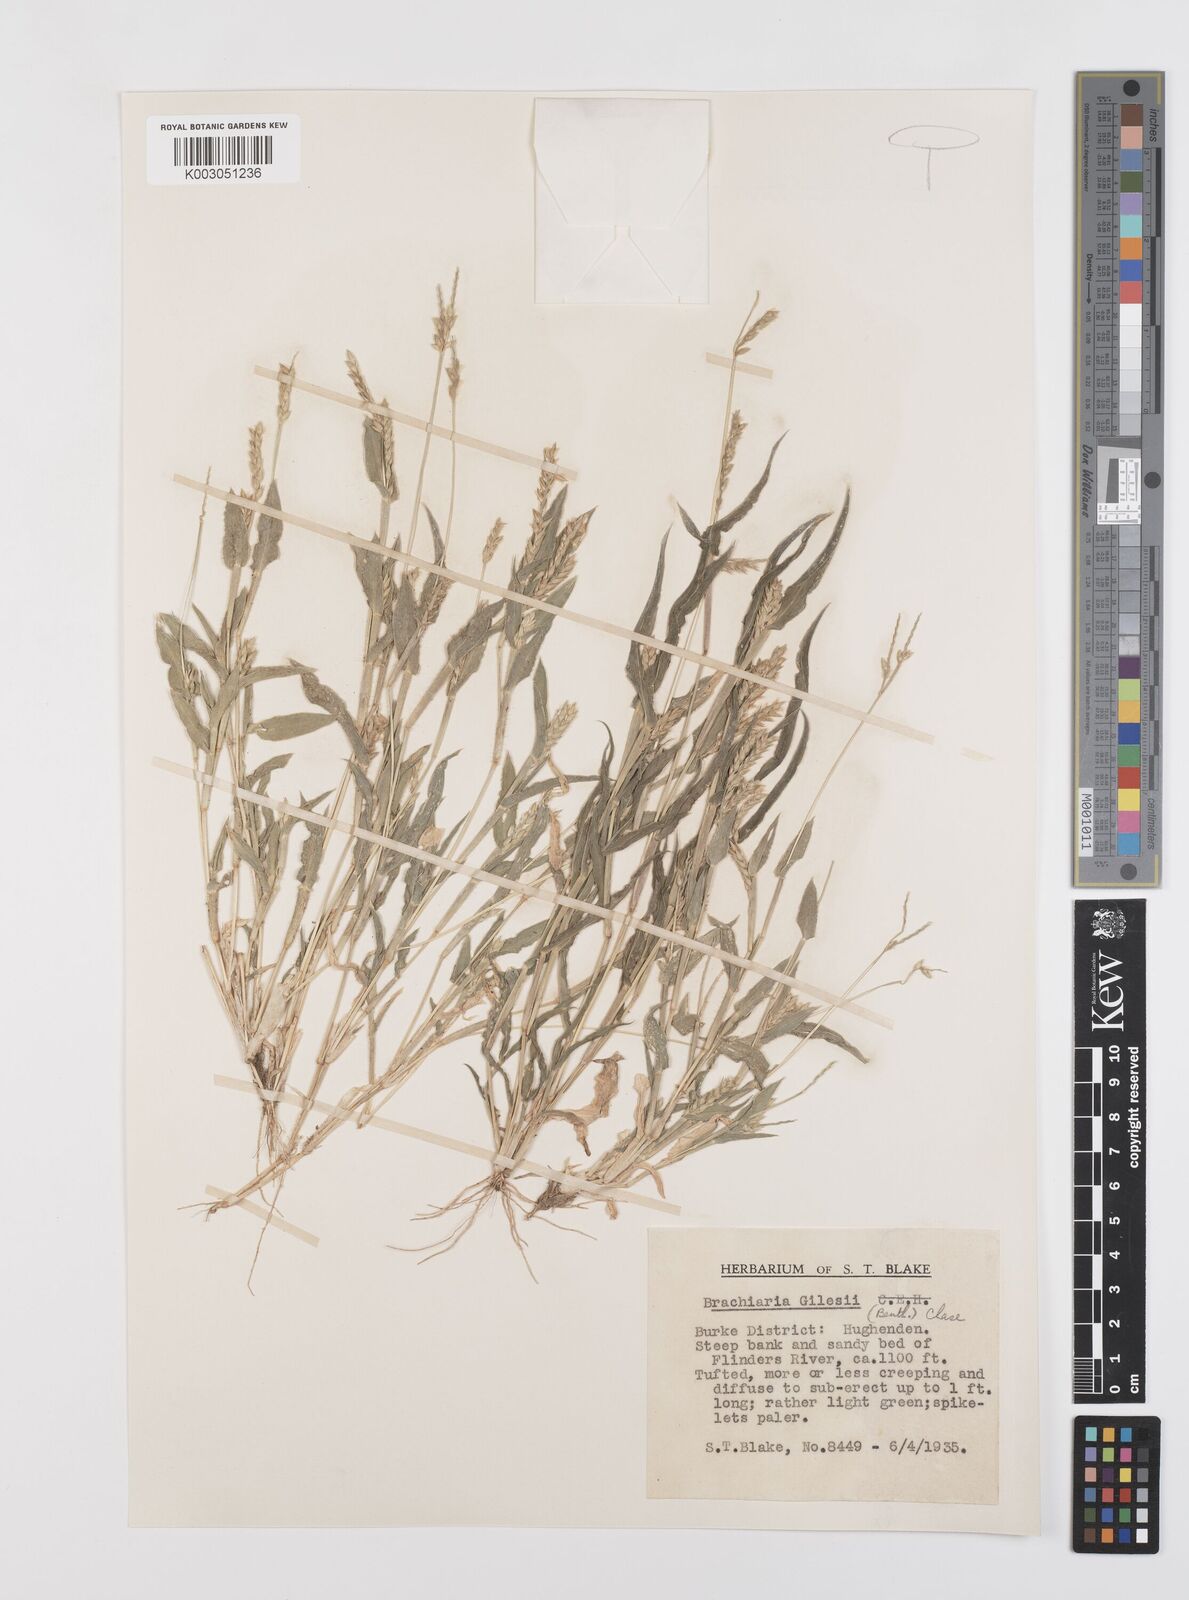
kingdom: Plantae
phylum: Tracheophyta
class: Liliopsida
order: Poales
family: Poaceae
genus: Urochloa
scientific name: Urochloa gilesii
